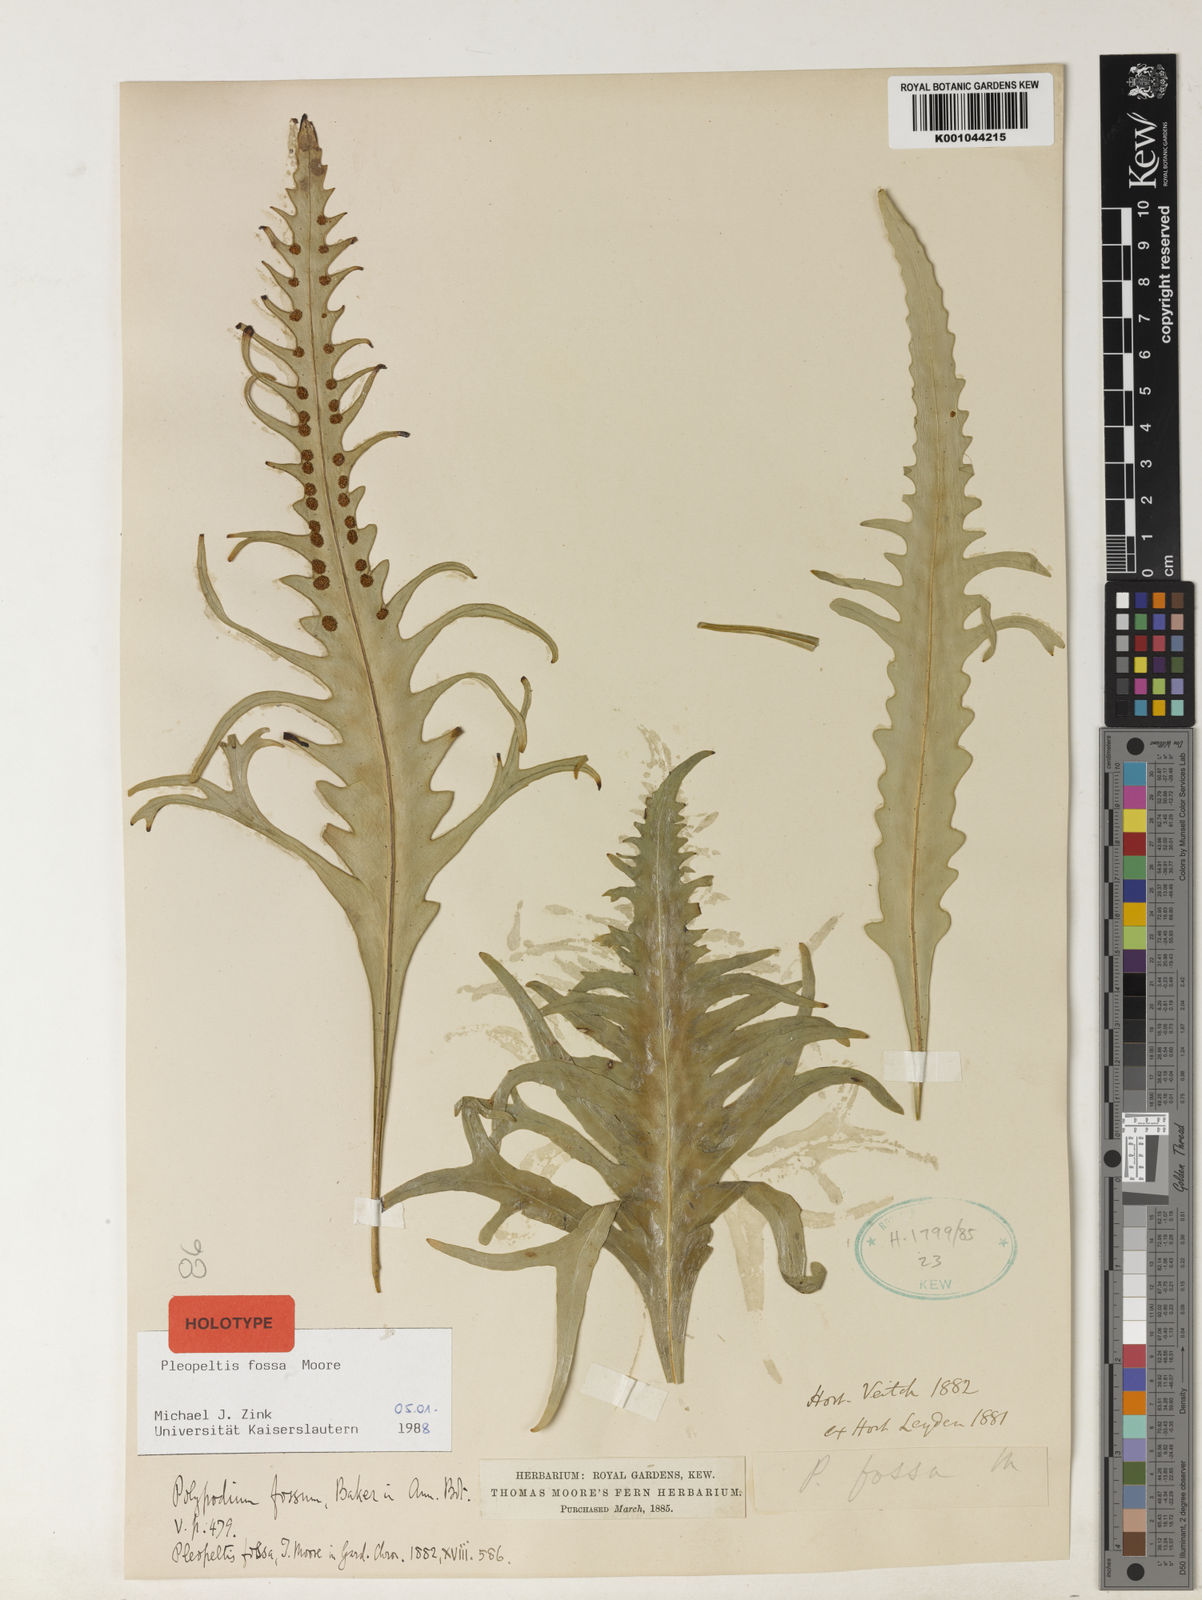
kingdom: Plantae
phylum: Tracheophyta
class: Polypodiopsida
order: Polypodiales
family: Polypodiaceae
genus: Pleopeltis
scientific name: Pleopeltis fossa
